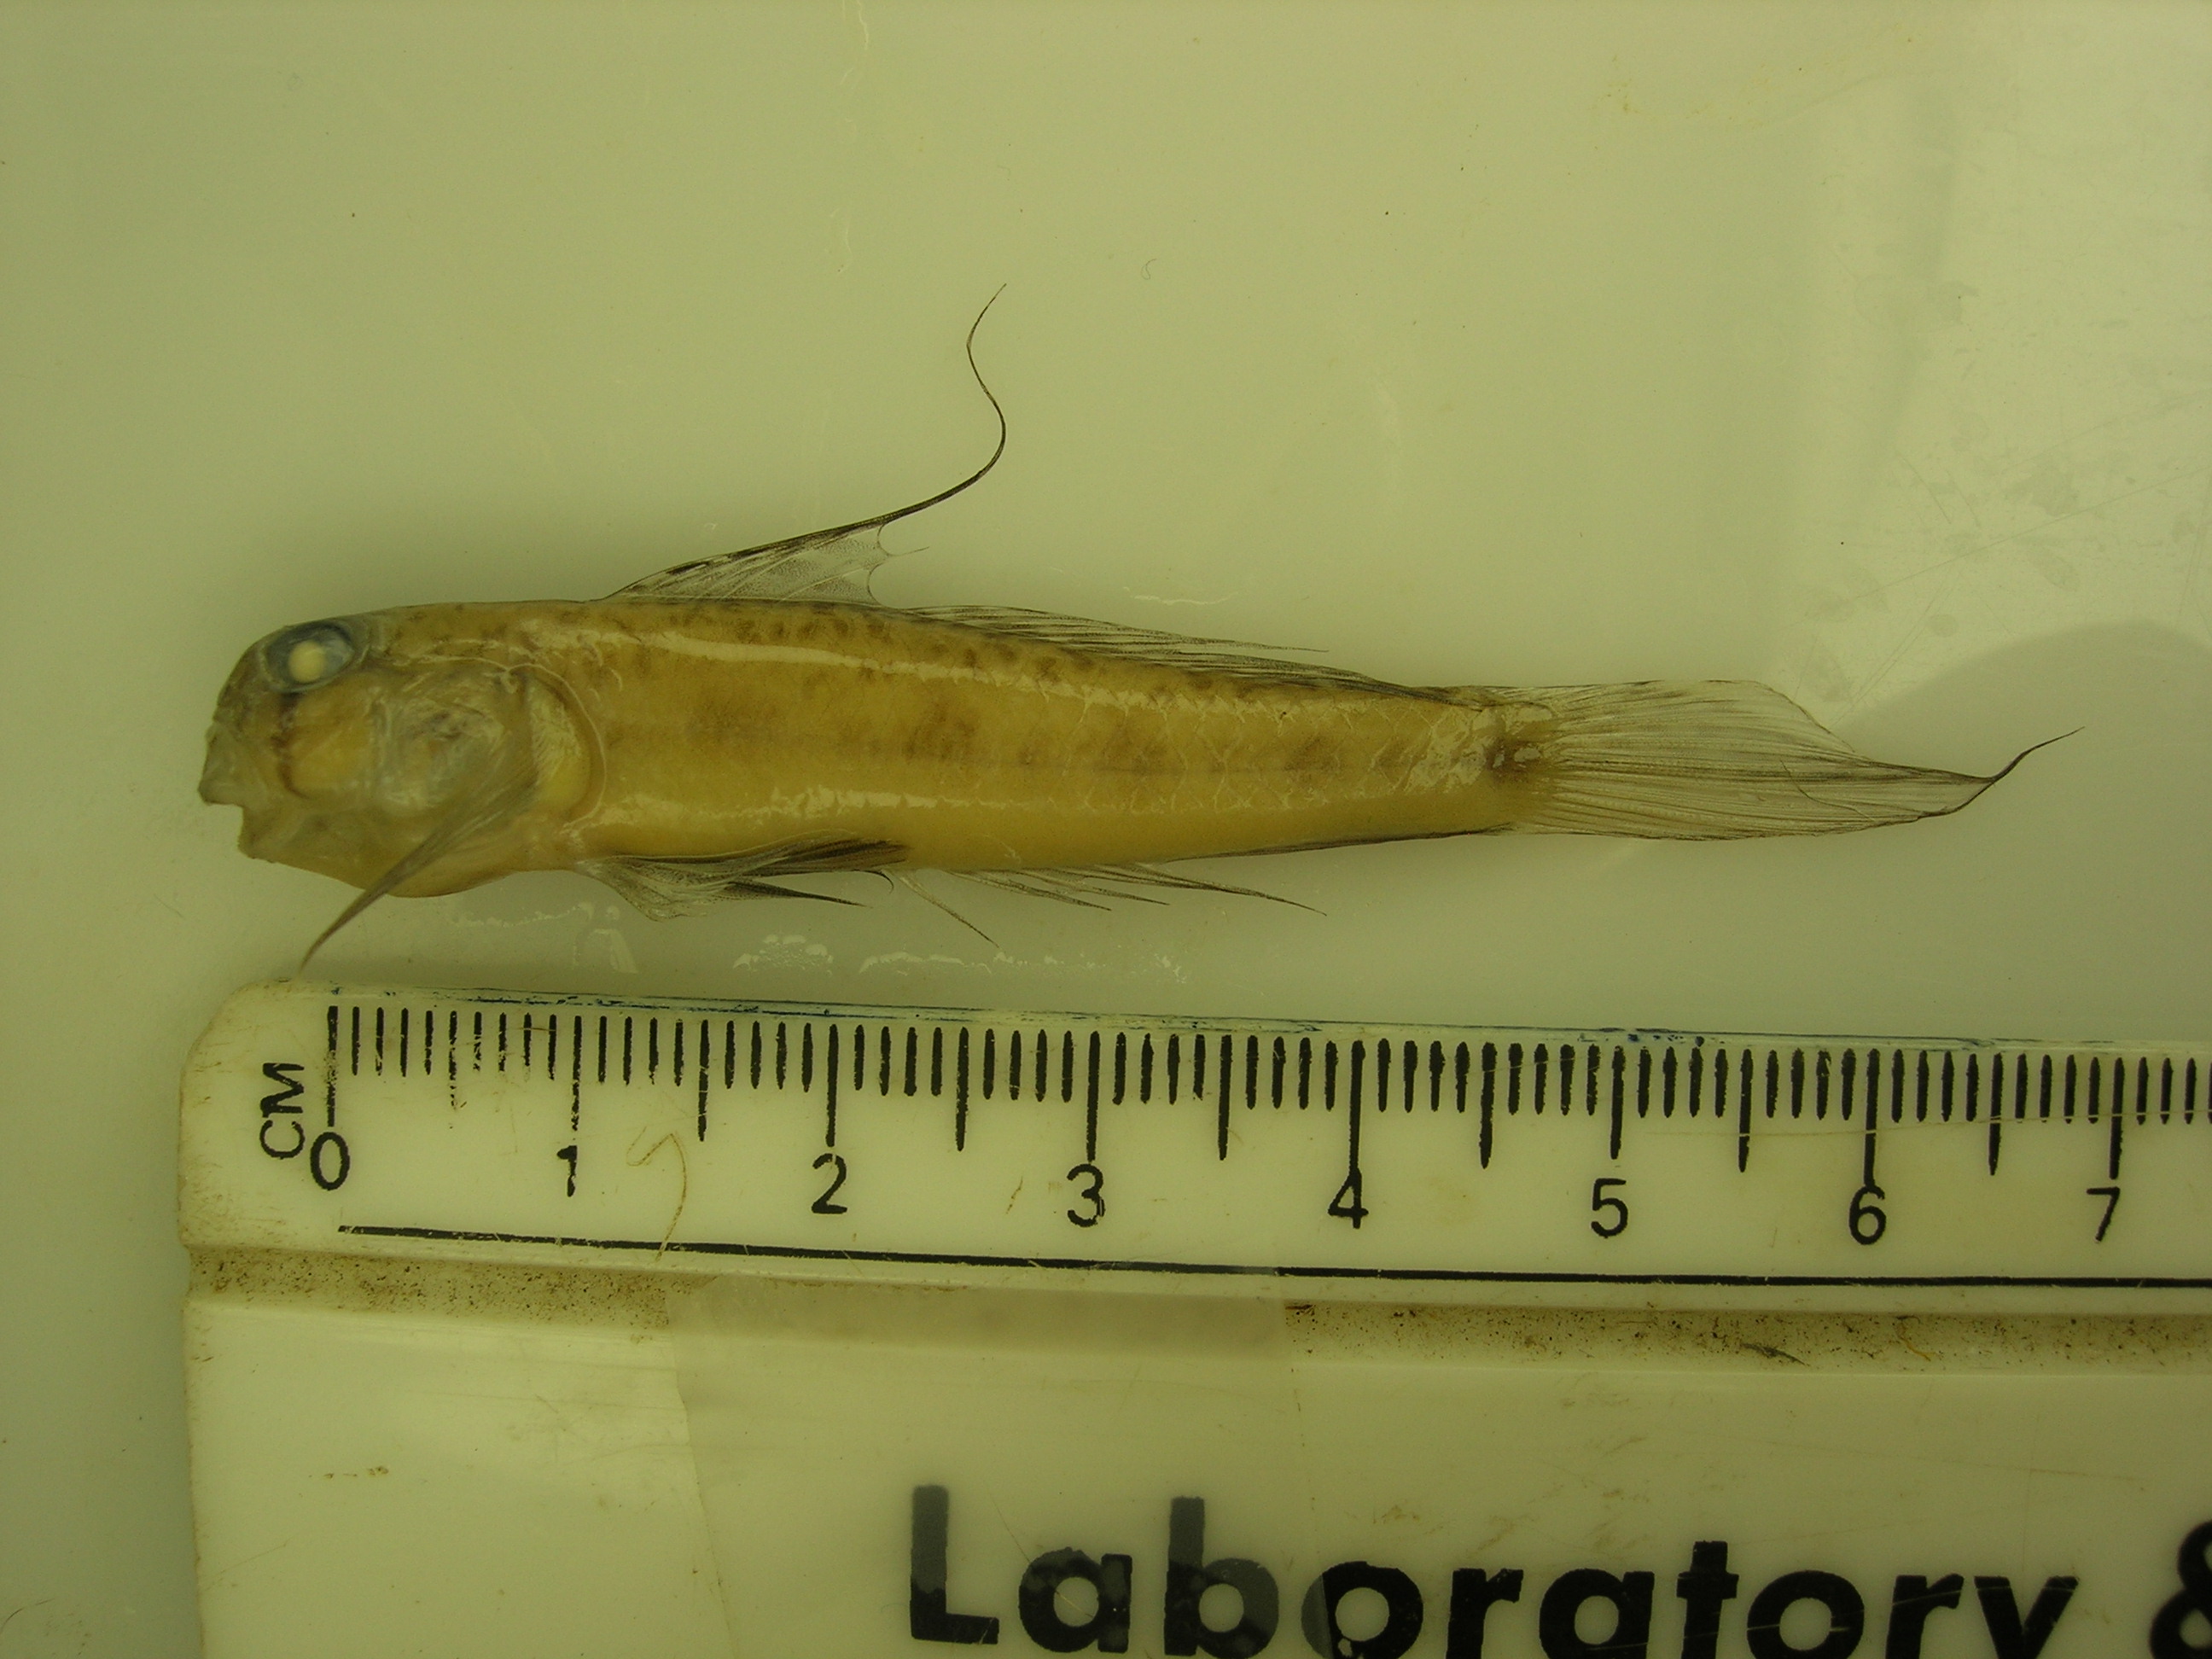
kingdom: Animalia
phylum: Chordata
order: Perciformes
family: Gobiidae
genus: Oligolepis
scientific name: Oligolepis acutipennis
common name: Sharptail goby
